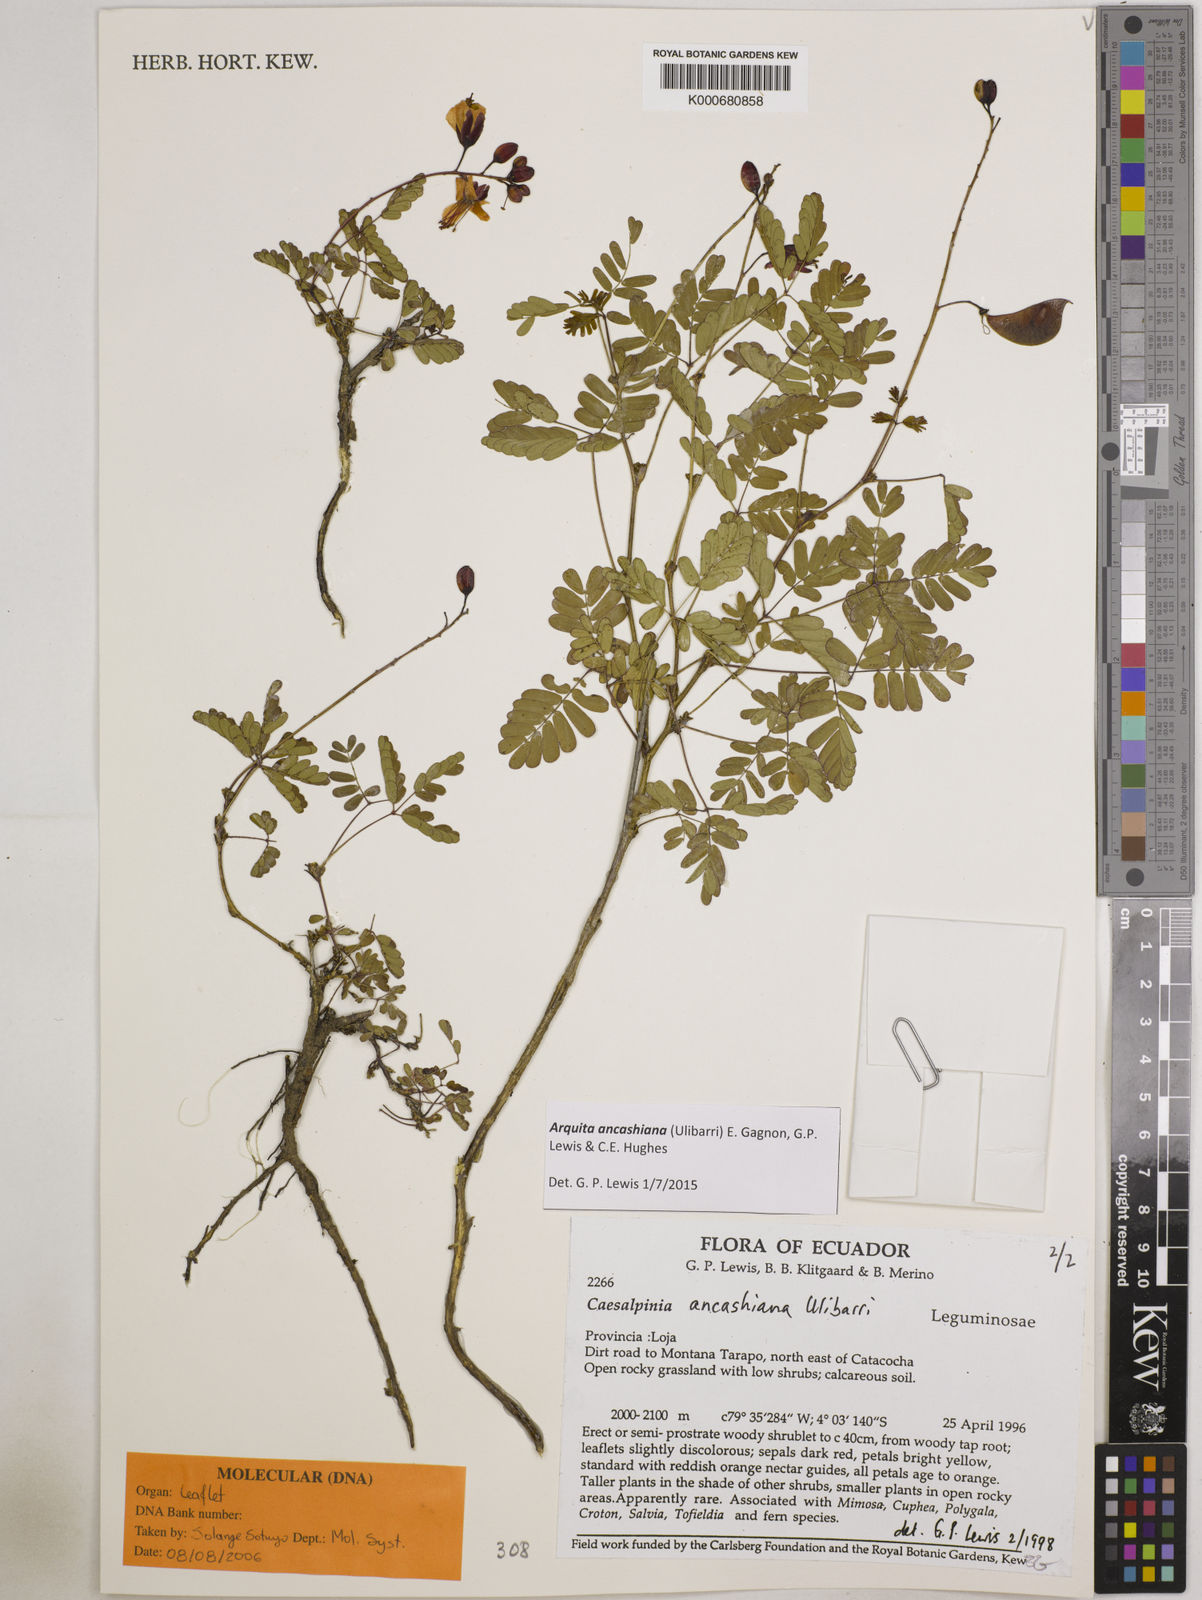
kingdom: Plantae
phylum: Tracheophyta
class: Magnoliopsida
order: Fabales
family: Fabaceae
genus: Arquita
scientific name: Arquita ancashiana
